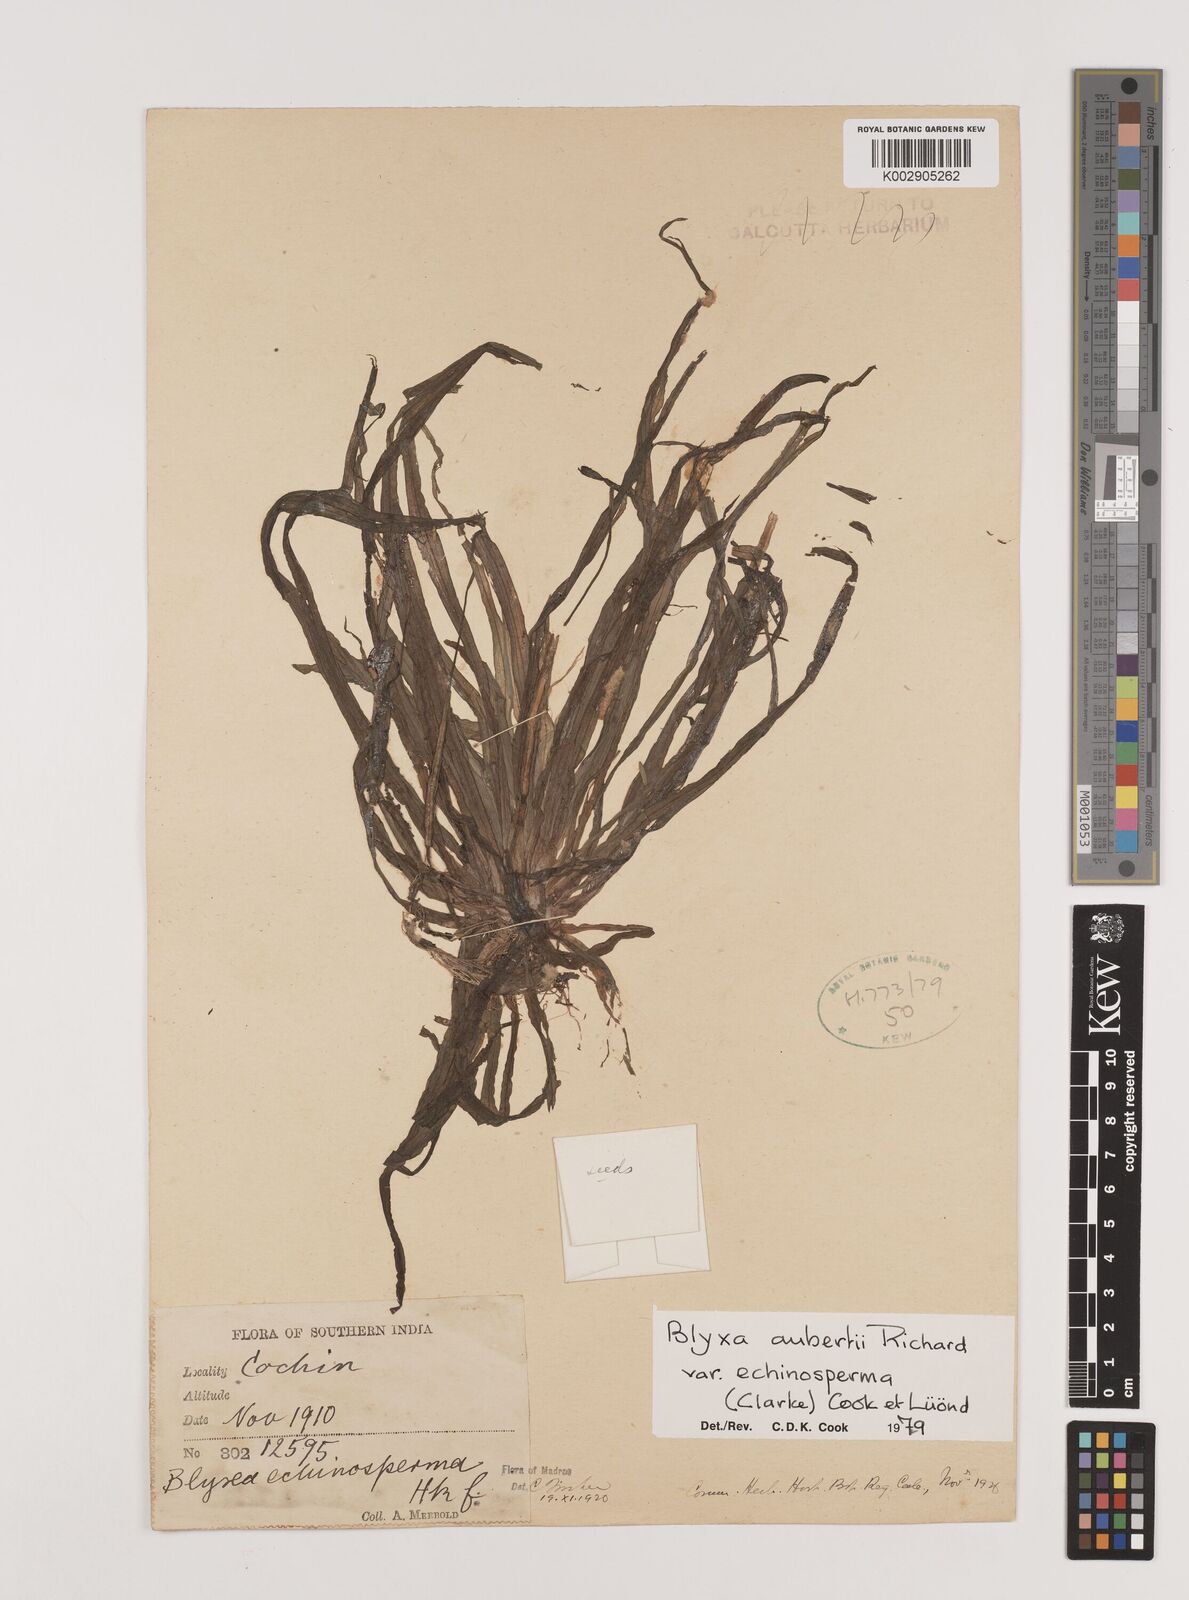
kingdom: Plantae
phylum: Tracheophyta
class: Liliopsida
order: Alismatales
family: Hydrocharitaceae
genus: Blyxa
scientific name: Blyxa echinosperma
